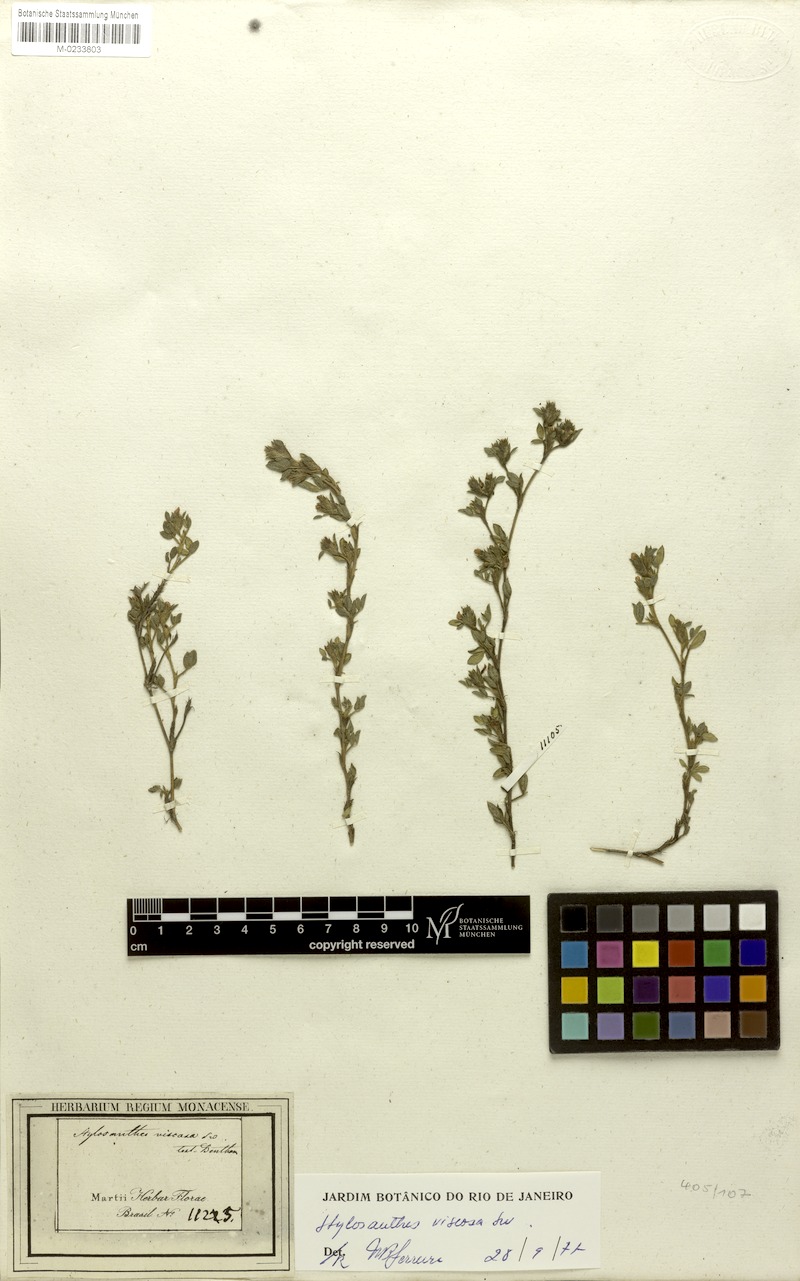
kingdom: Plantae
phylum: Tracheophyta
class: Magnoliopsida
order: Fabales
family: Fabaceae
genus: Stylosanthes
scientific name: Stylosanthes viscosa
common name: Viscid pencil-flower
